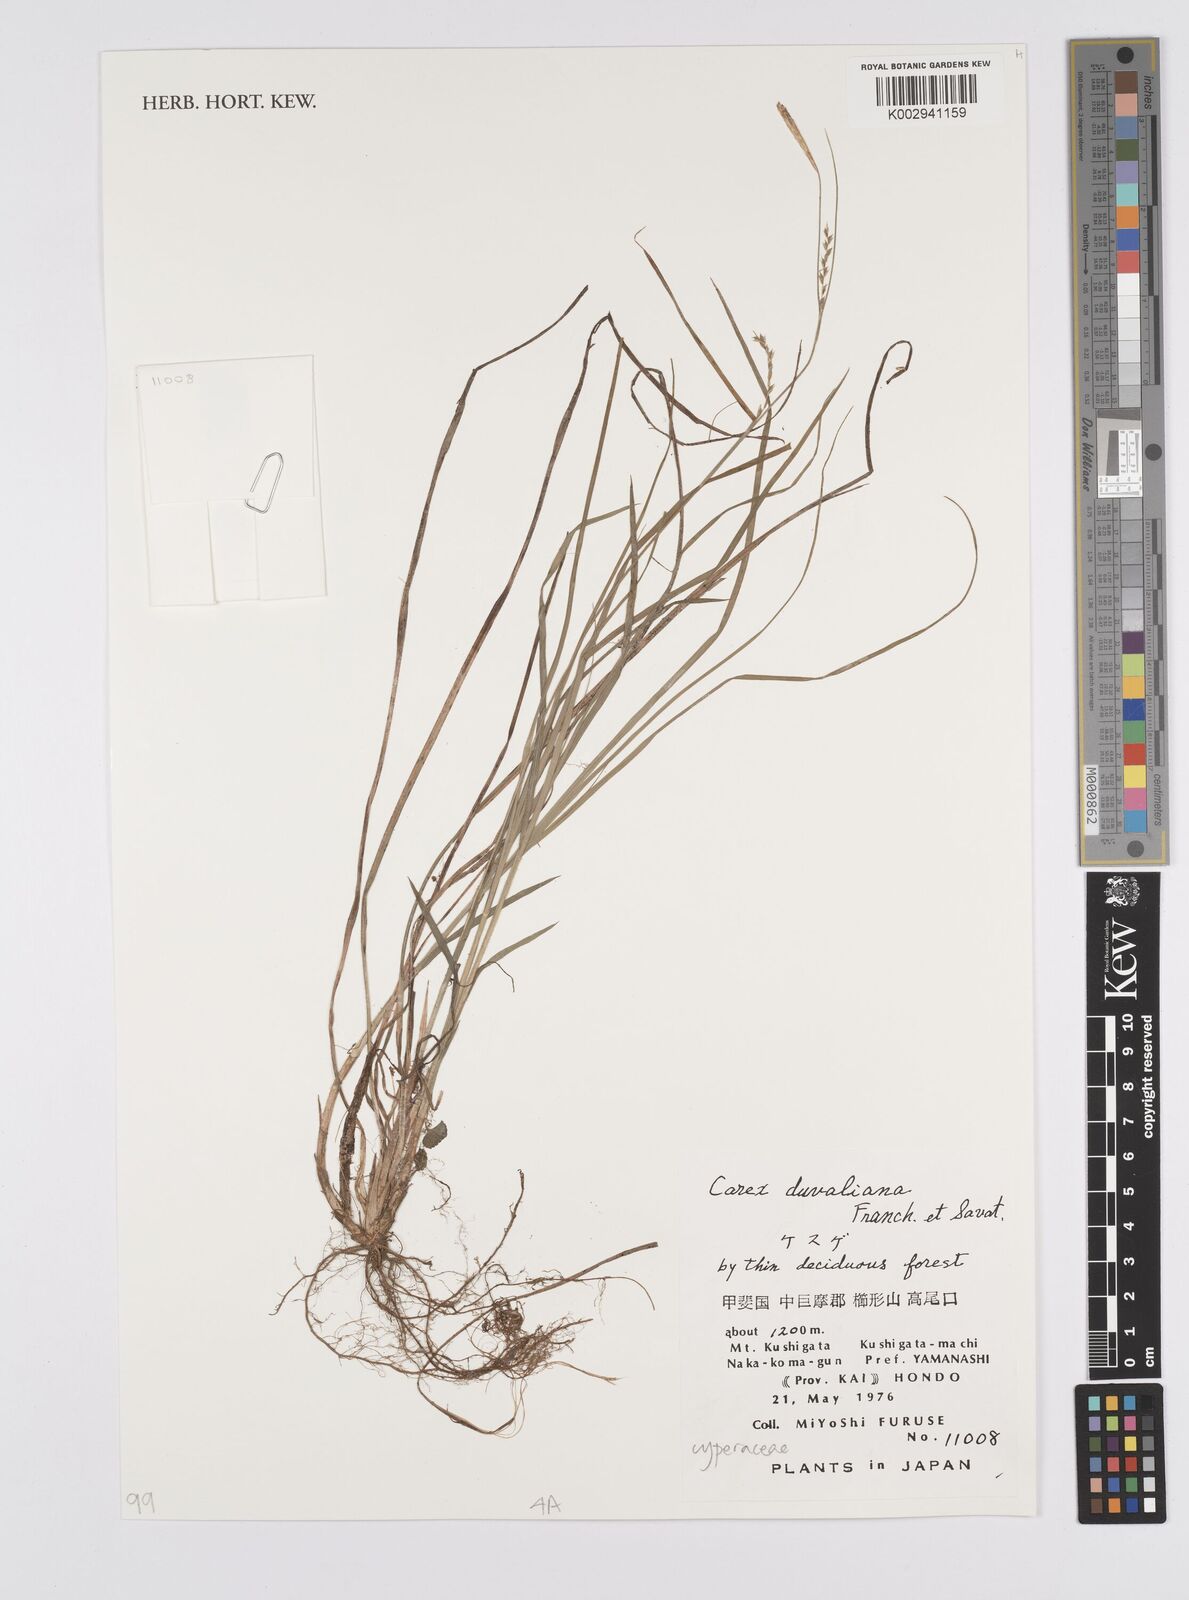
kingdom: Plantae
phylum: Tracheophyta
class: Liliopsida
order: Poales
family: Cyperaceae
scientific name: Cyperaceae
